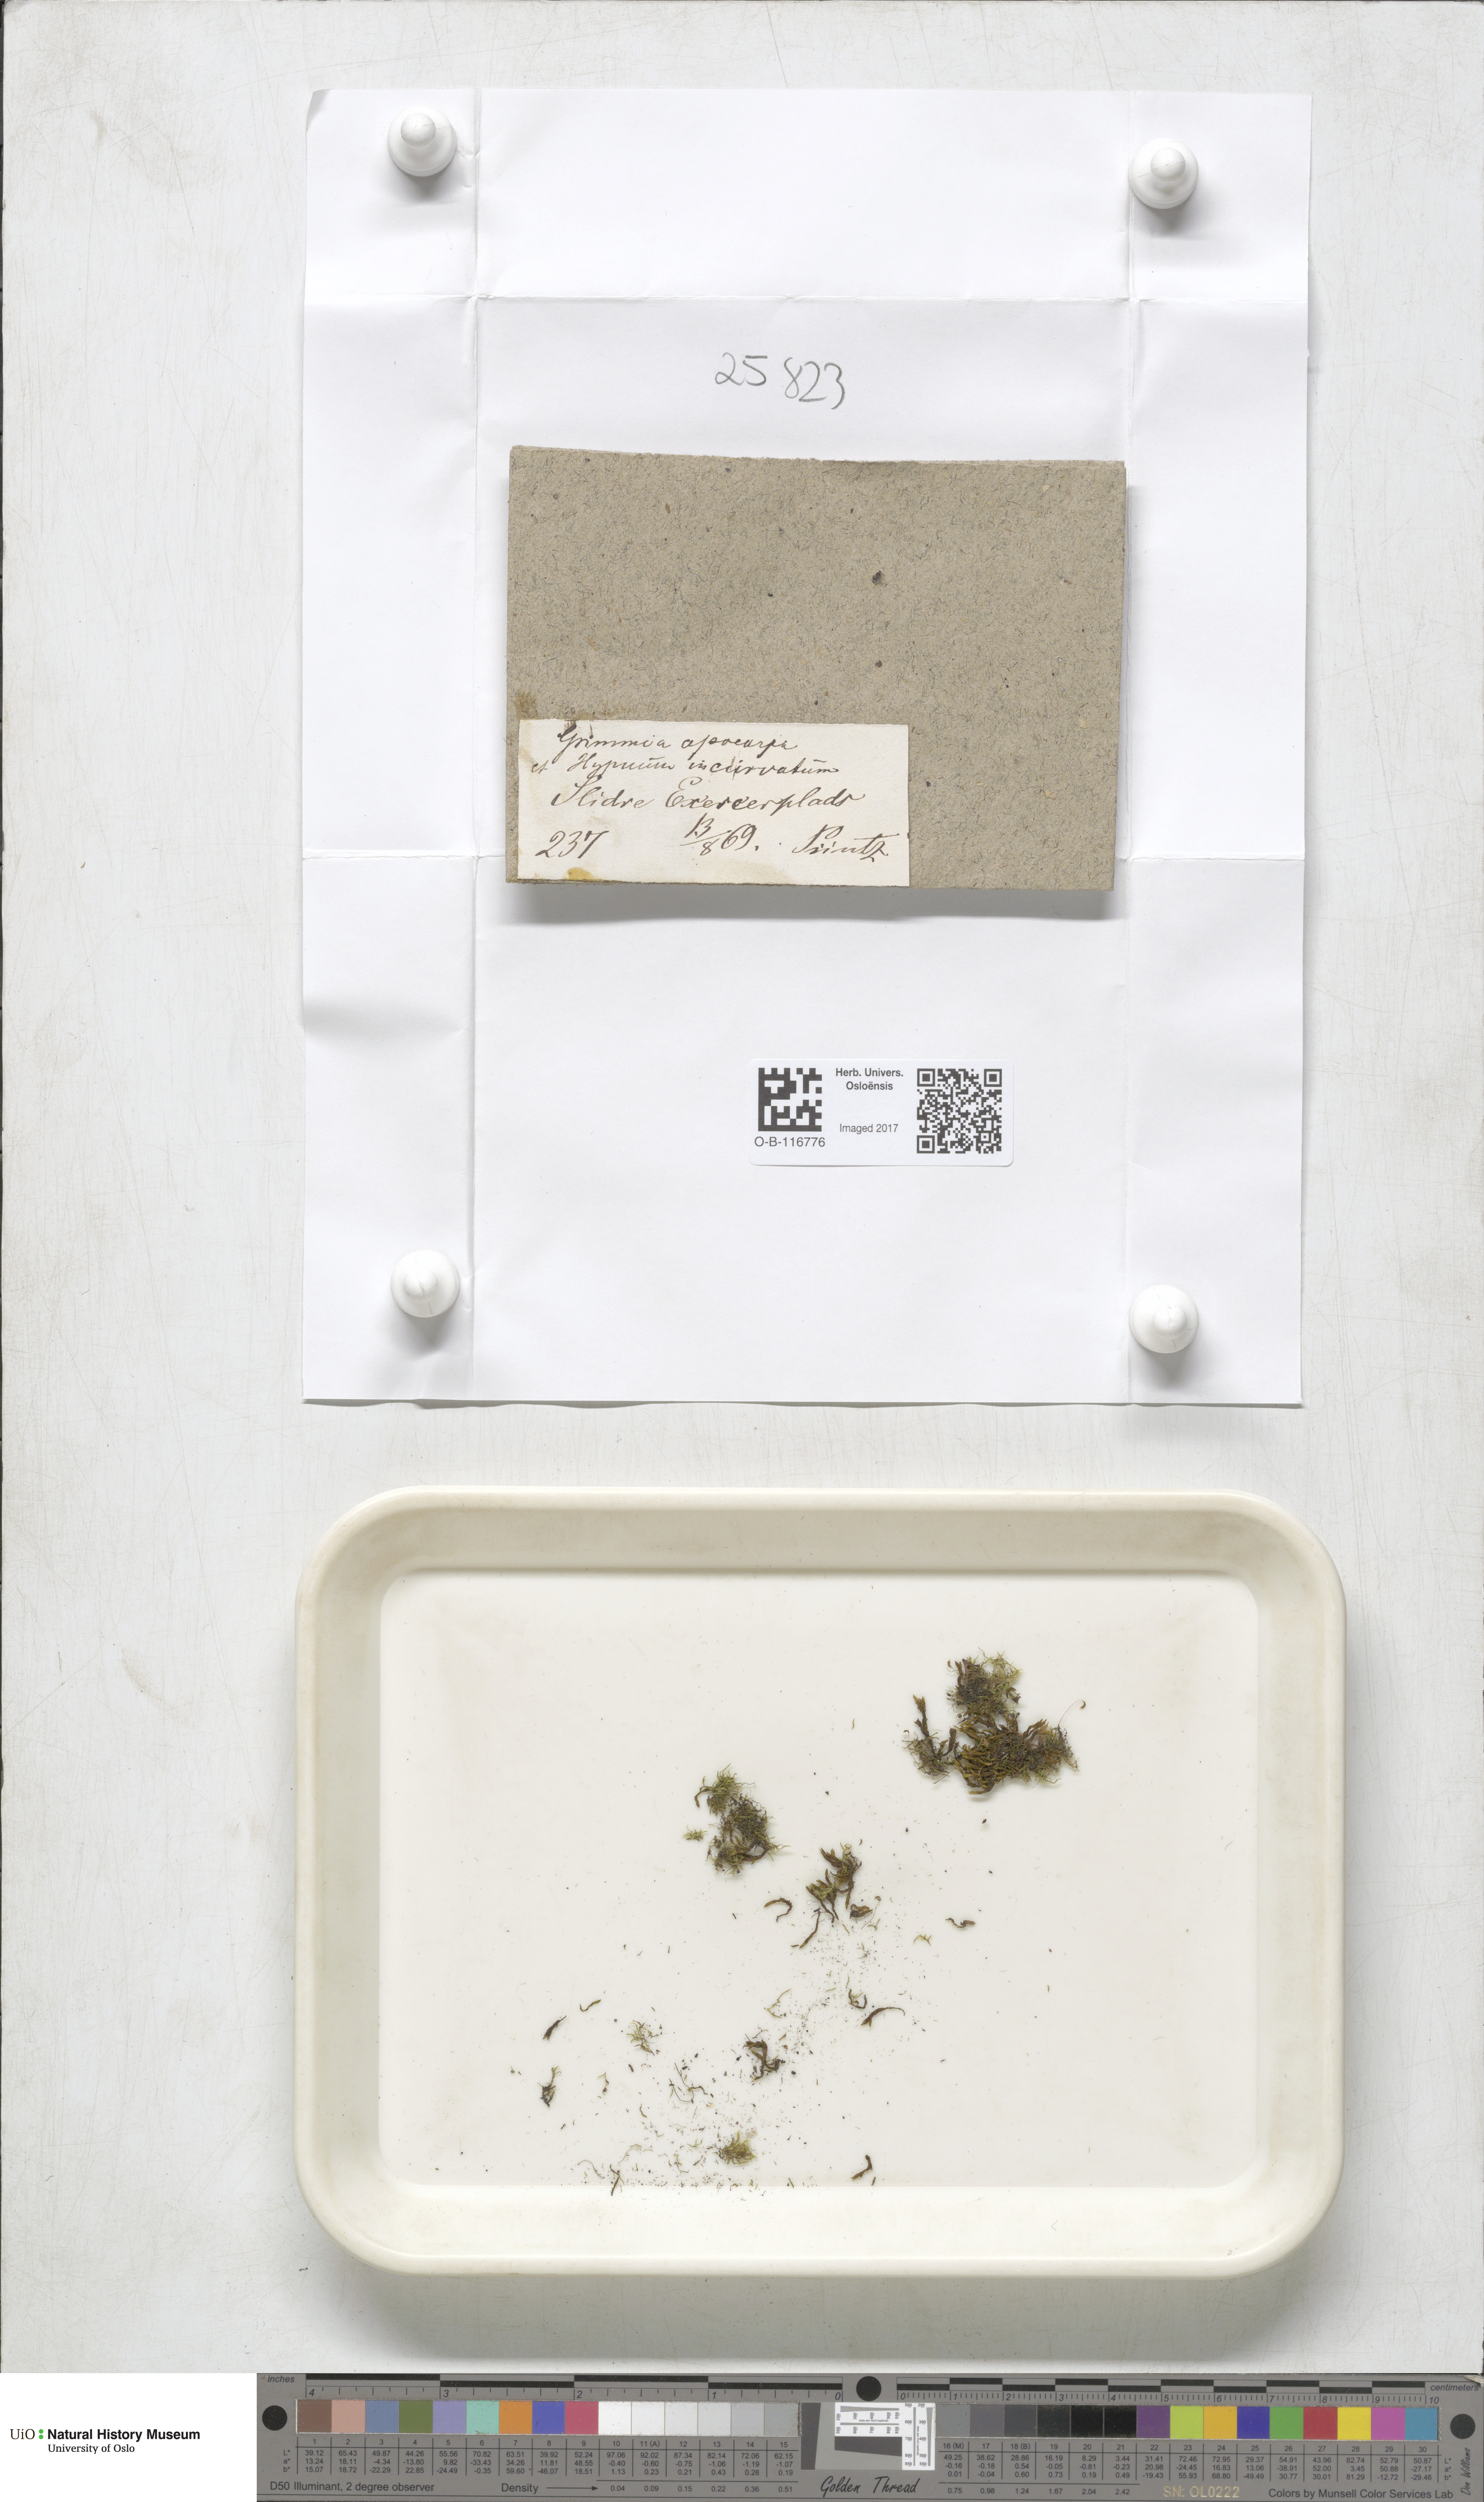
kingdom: Plantae
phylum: Bryophyta
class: Bryopsida
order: Hypnales
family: Pylaisiaceae
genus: Homomallium
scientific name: Homomallium incurvatum
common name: Incurved feather-moss
